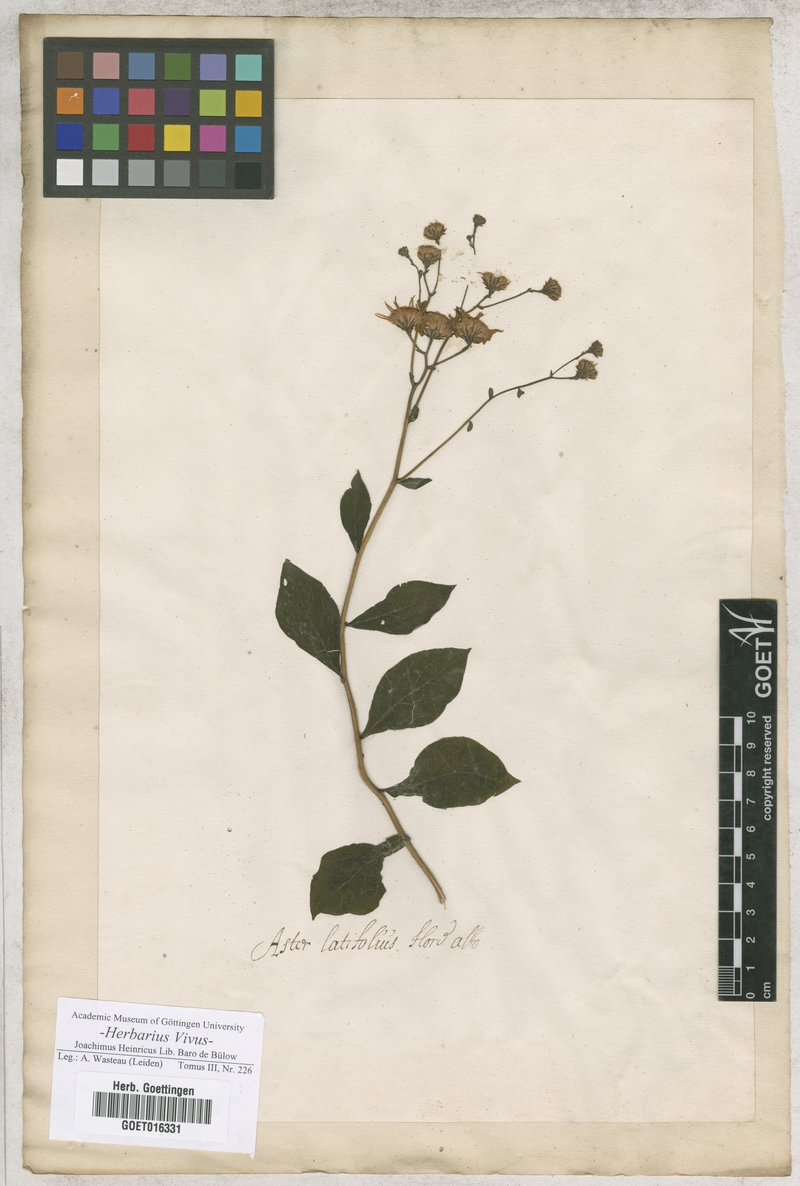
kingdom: Plantae
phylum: Tracheophyta
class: Magnoliopsida
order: Asterales
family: Asteraceae
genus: Aster
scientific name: Aster
